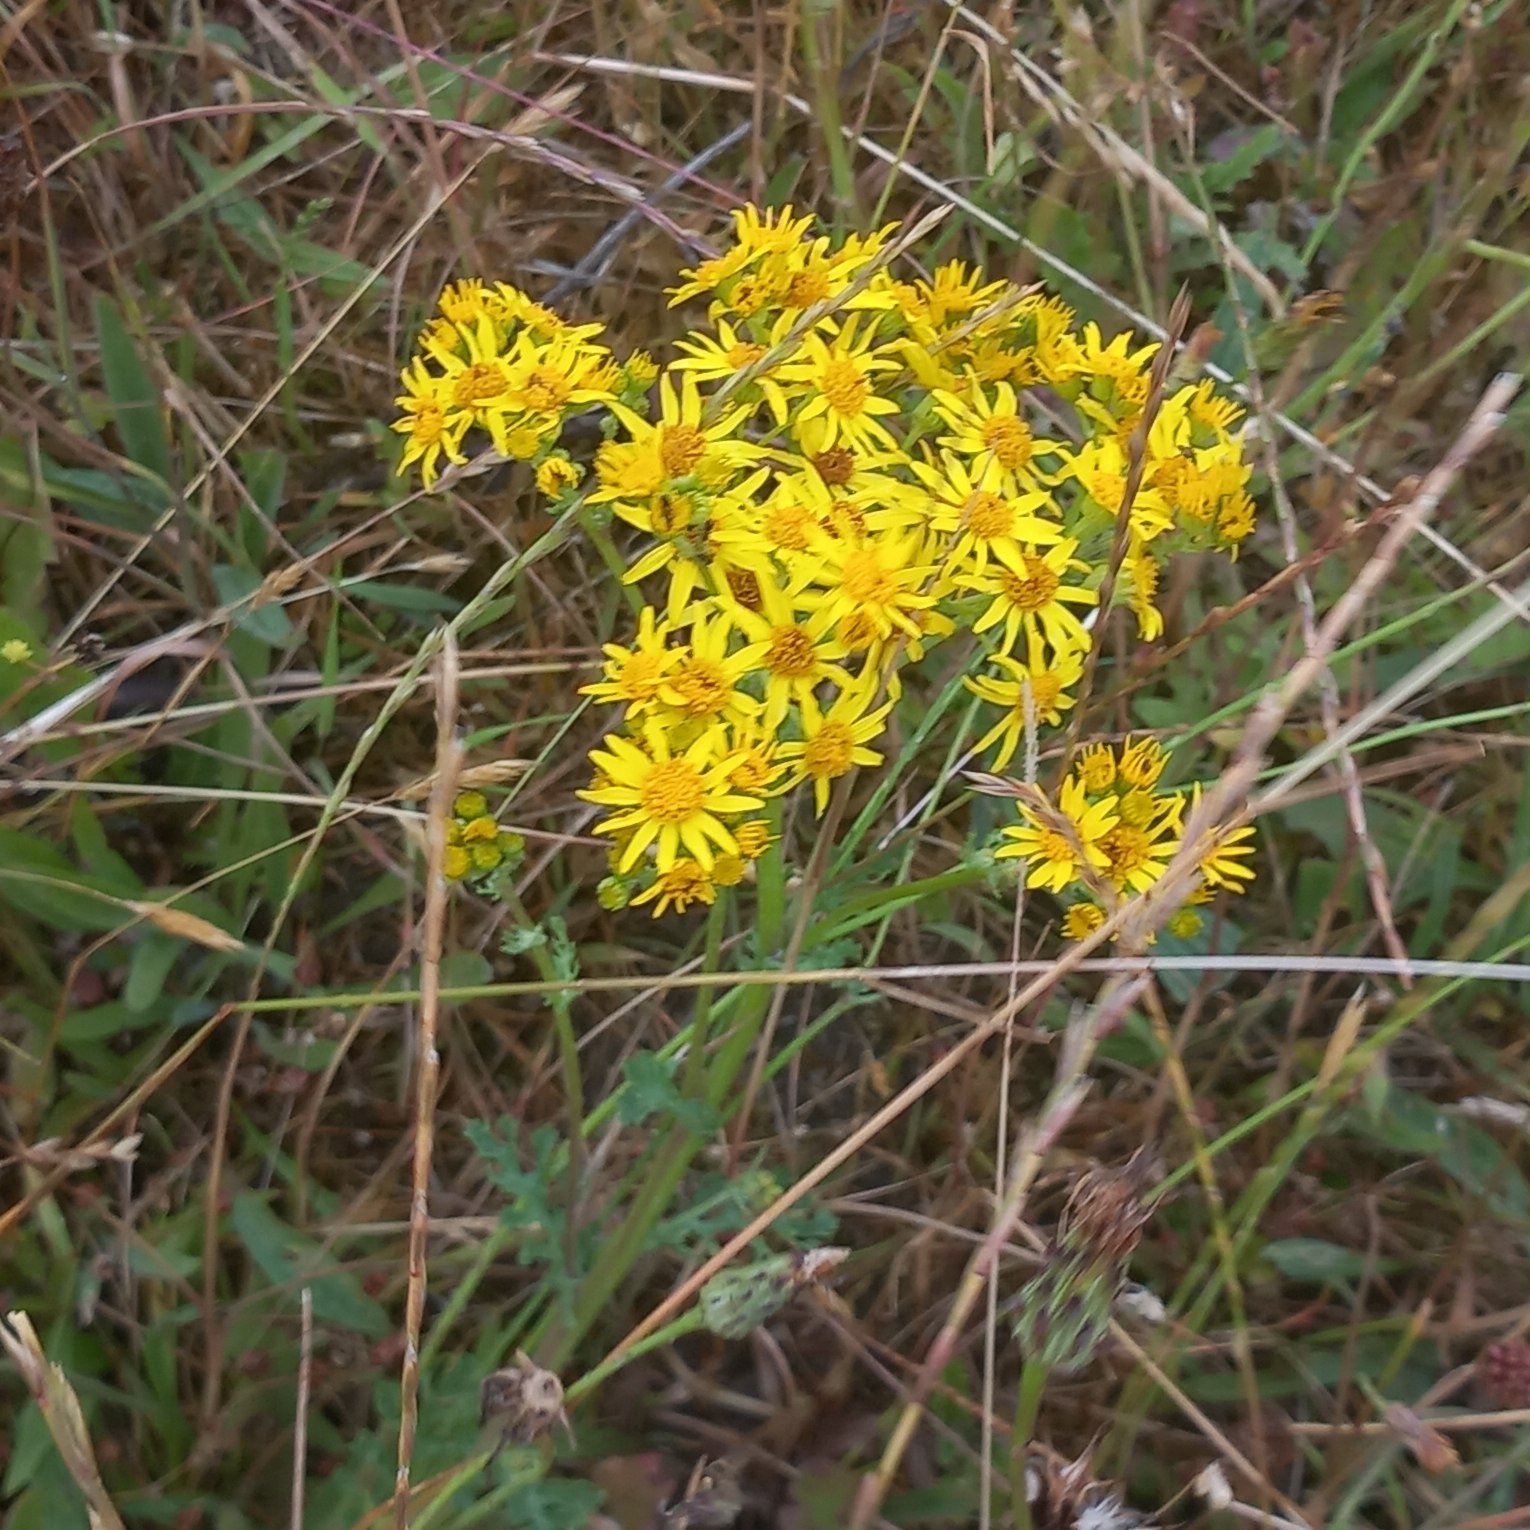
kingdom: Plantae
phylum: Tracheophyta
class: Magnoliopsida
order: Asterales
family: Asteraceae
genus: Jacobaea
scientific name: Jacobaea vulgaris
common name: Eng-brandbæger
